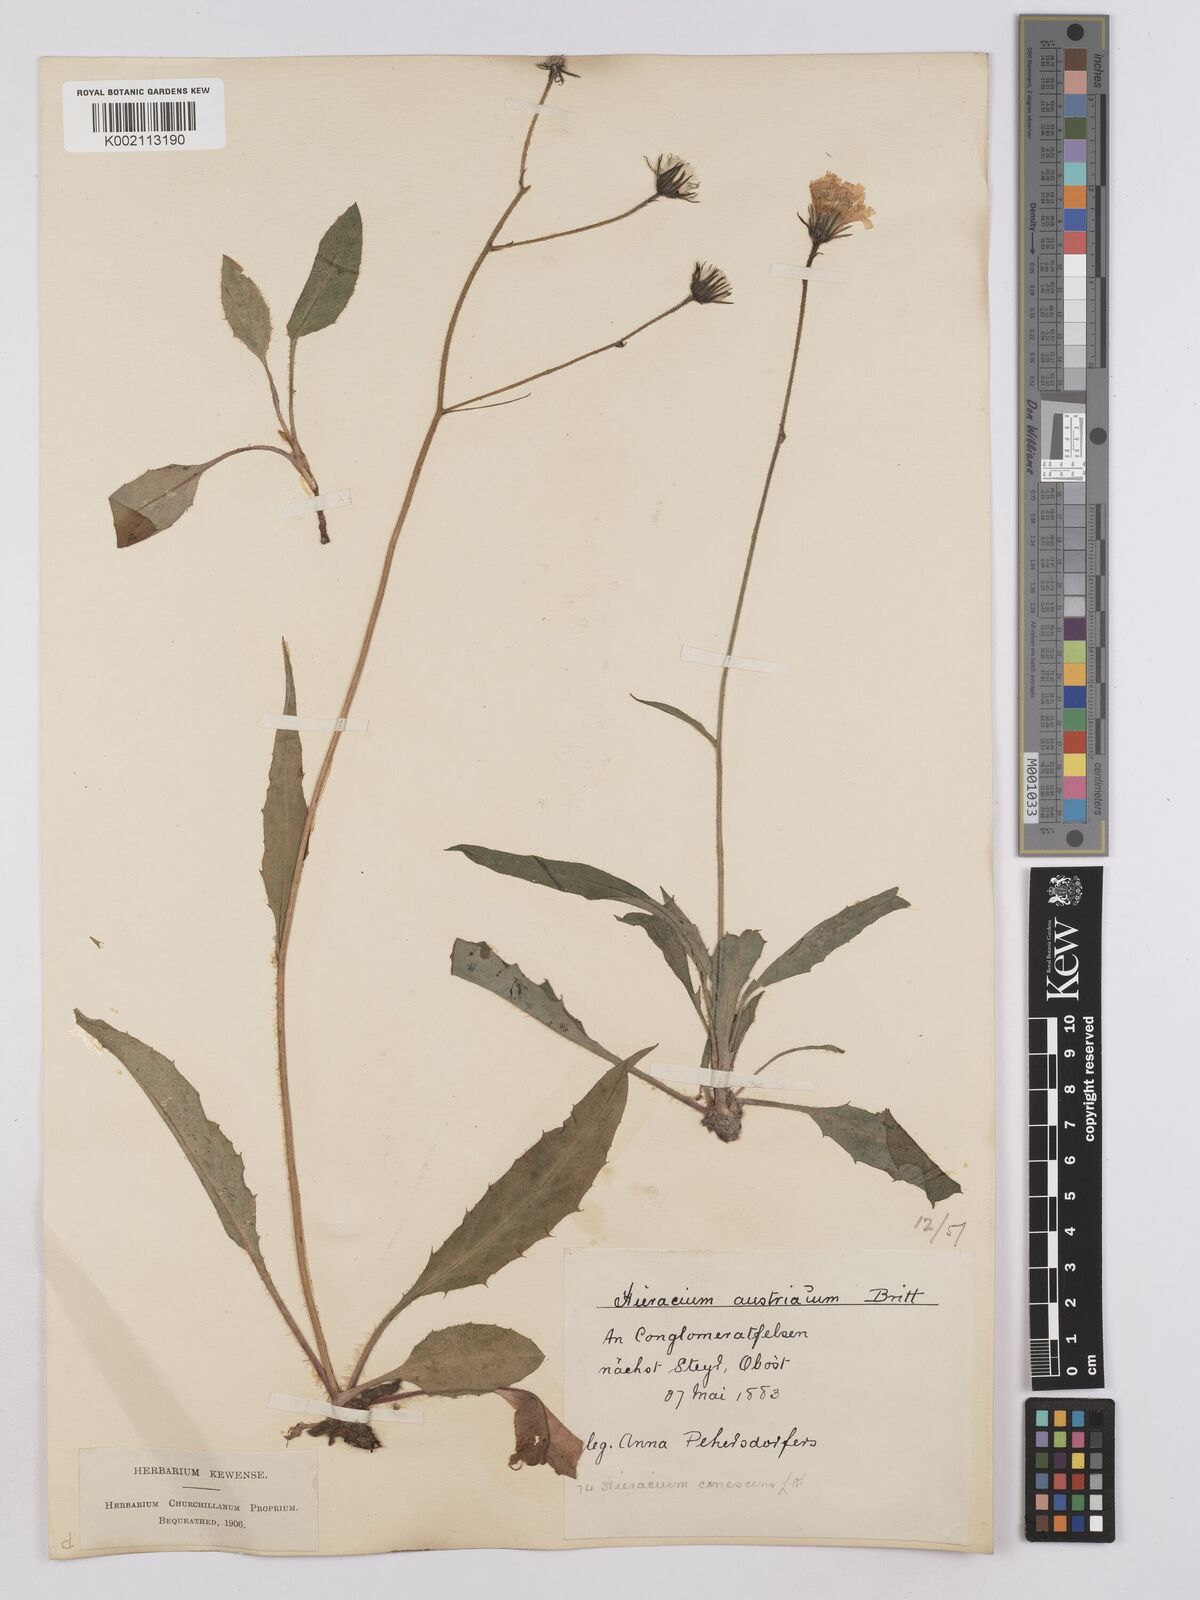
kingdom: Plantae
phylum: Tracheophyta
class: Magnoliopsida
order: Asterales
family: Asteraceae
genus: Crepis
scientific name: Crepis blattarioides
